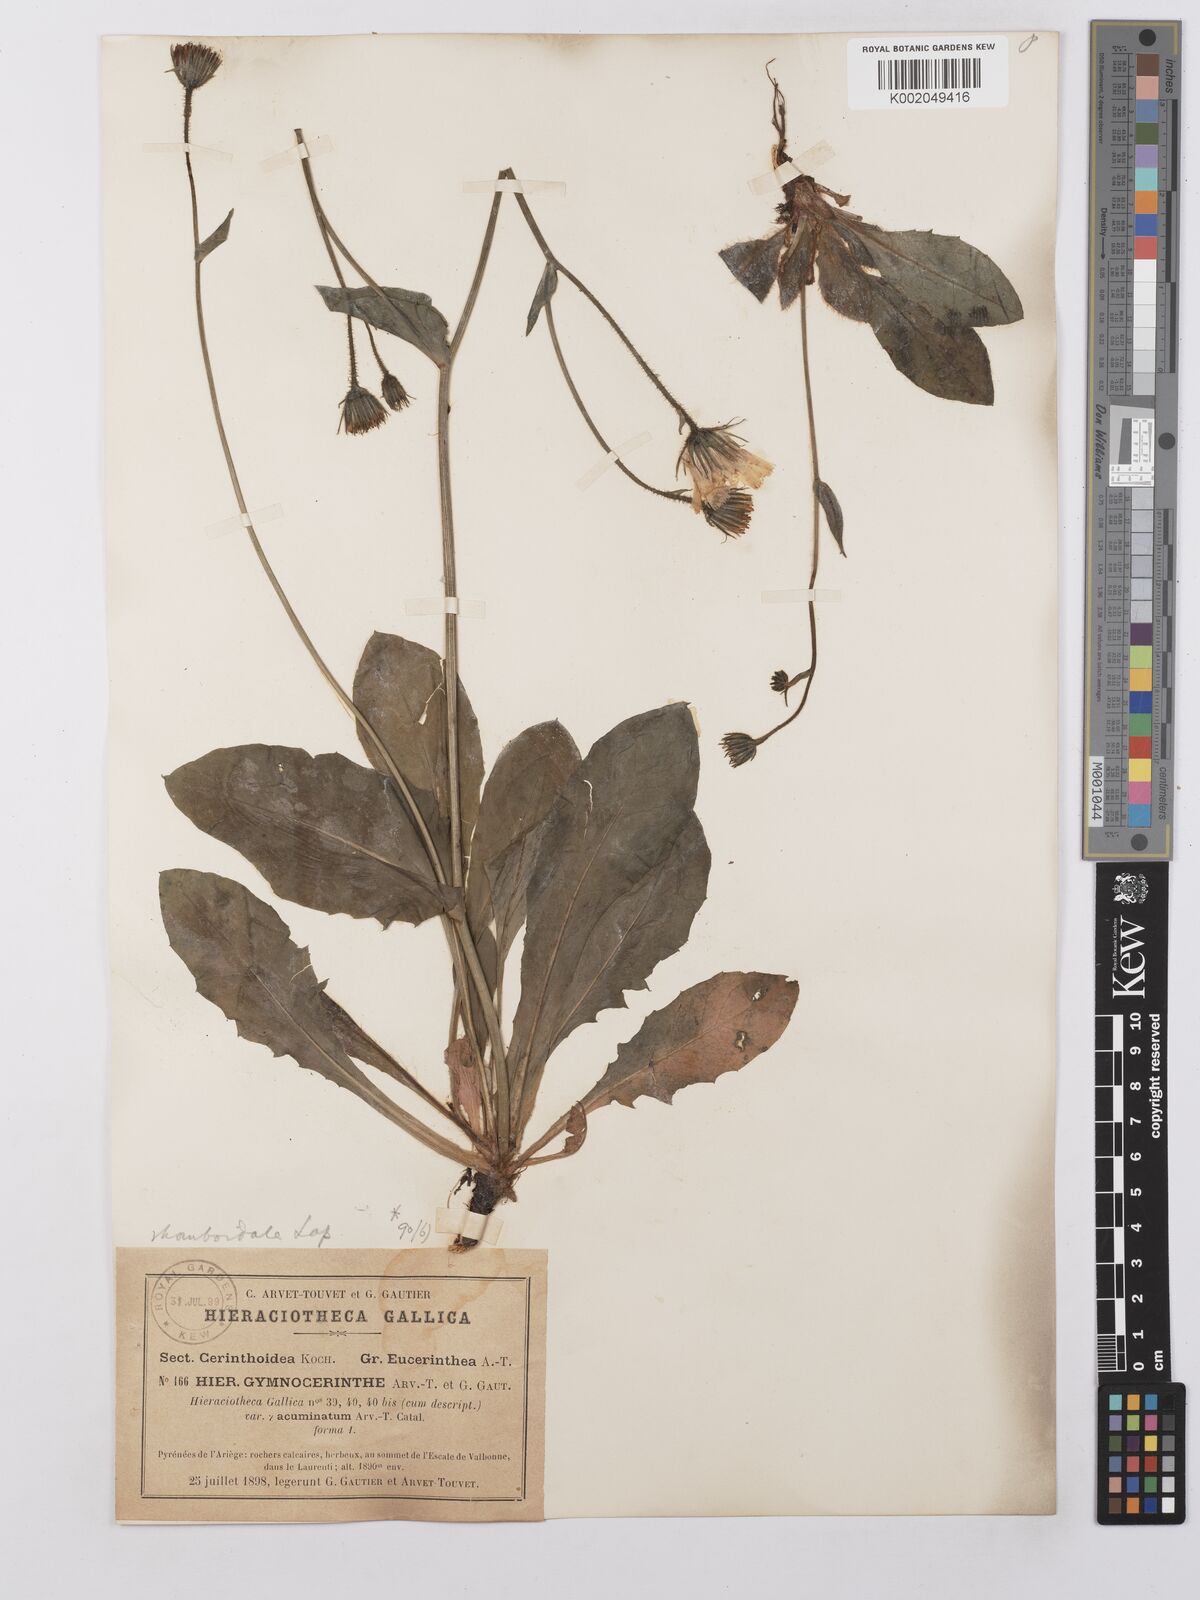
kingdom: Plantae
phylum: Tracheophyta
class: Magnoliopsida
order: Asterales
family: Asteraceae
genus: Hieracium
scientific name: Hieracium cerinthoides
